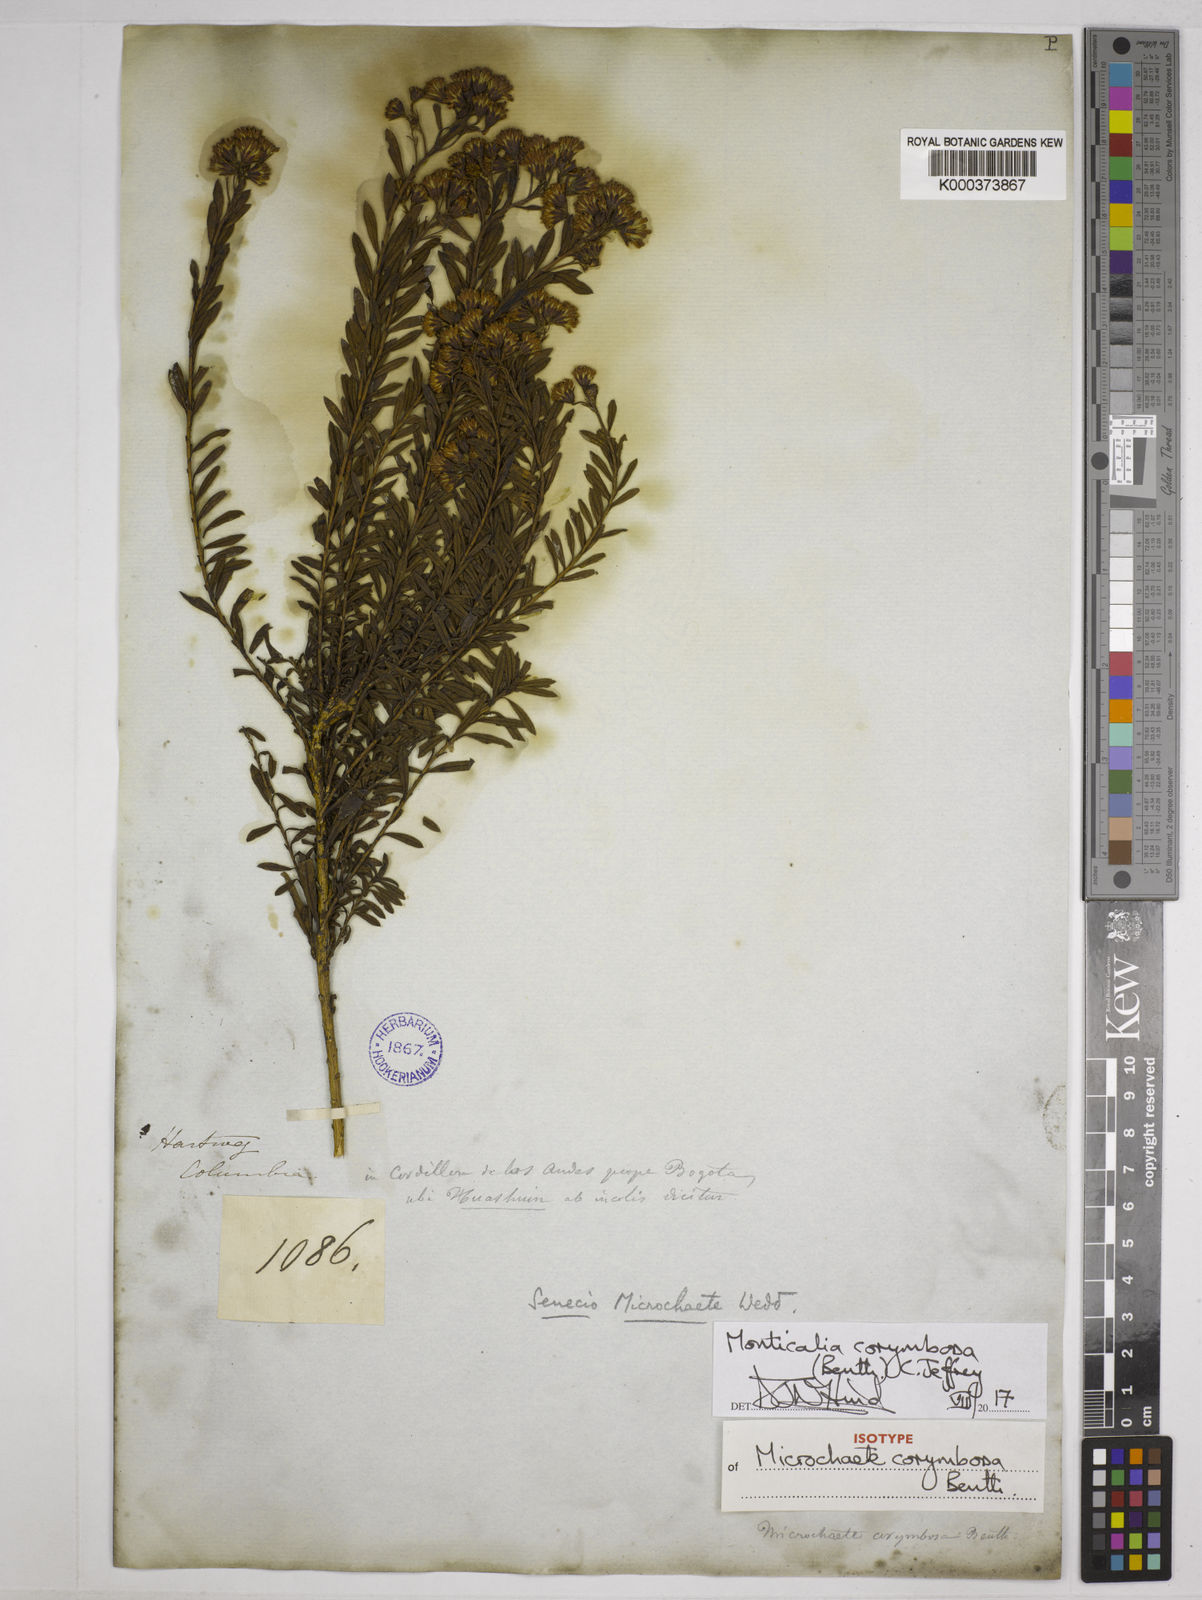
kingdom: Plantae
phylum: Tracheophyta
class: Magnoliopsida
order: Asterales
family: Asteraceae
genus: Monticalia
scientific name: Monticalia corymbosa
